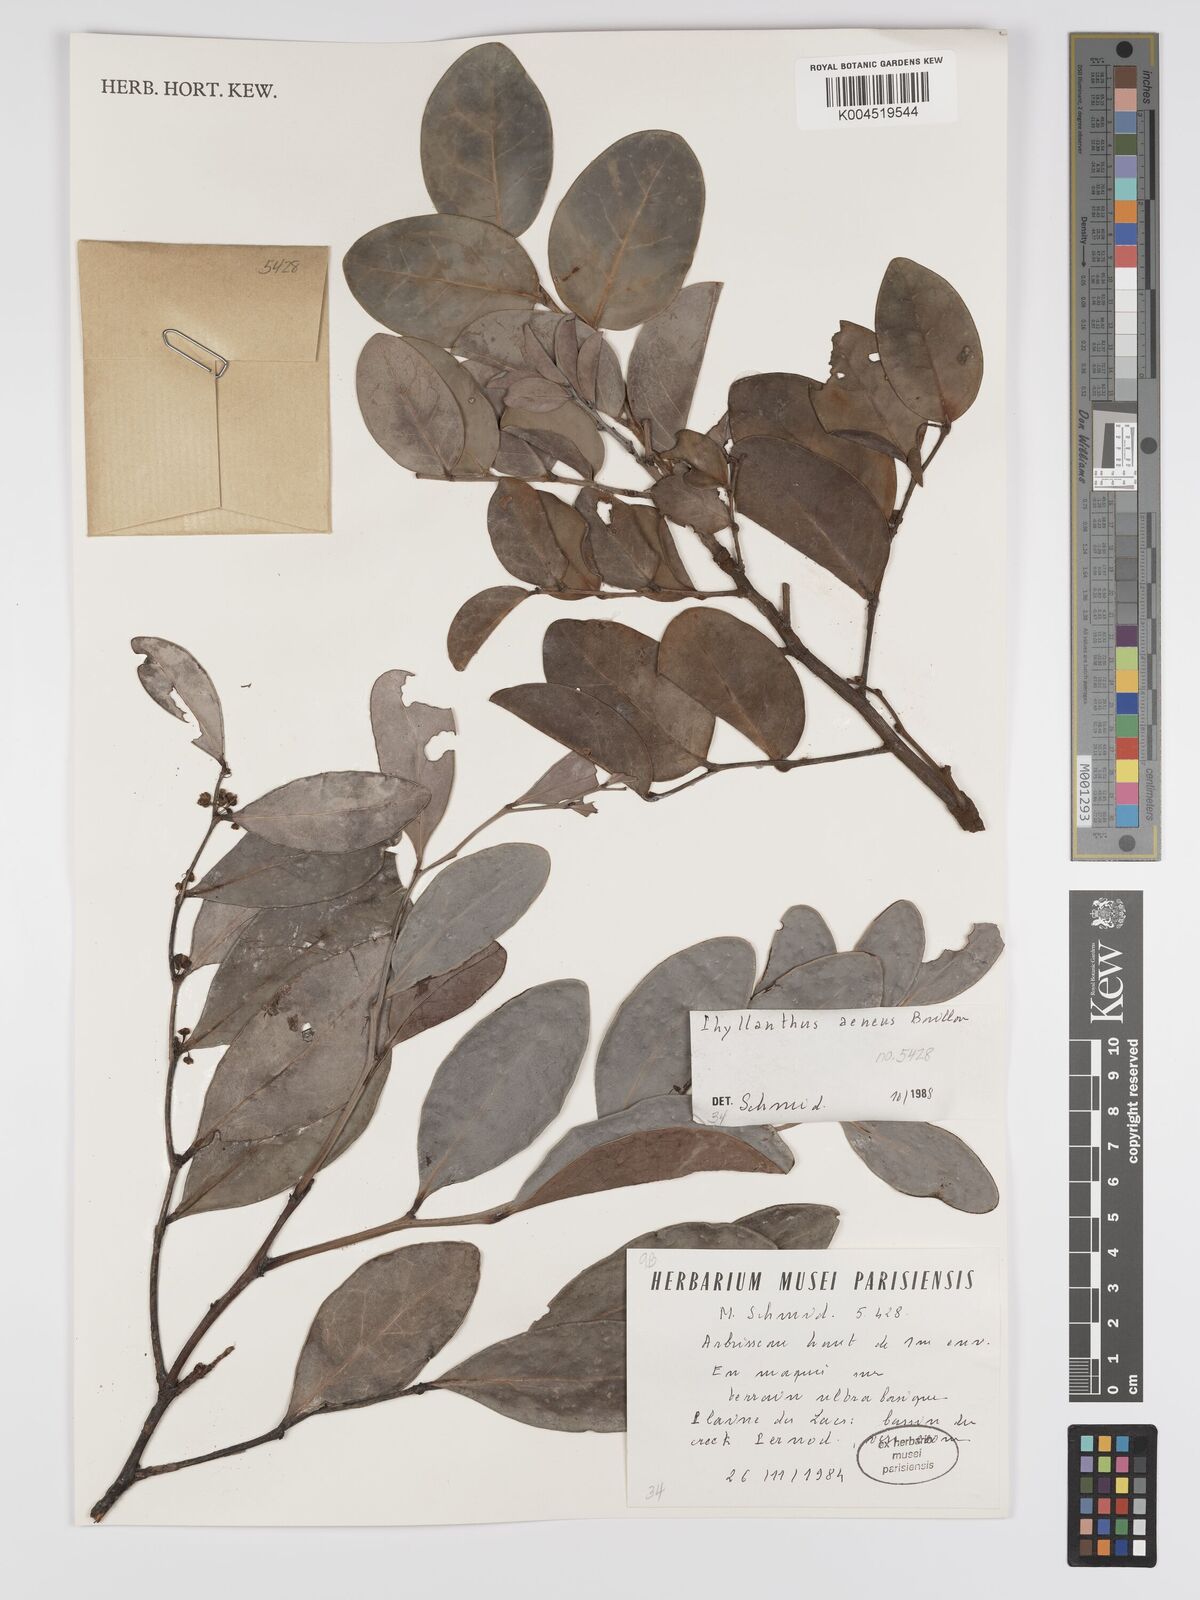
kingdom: Plantae
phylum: Tracheophyta
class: Magnoliopsida
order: Malpighiales
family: Phyllanthaceae
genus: Phyllanthus
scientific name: Phyllanthus aeneus
